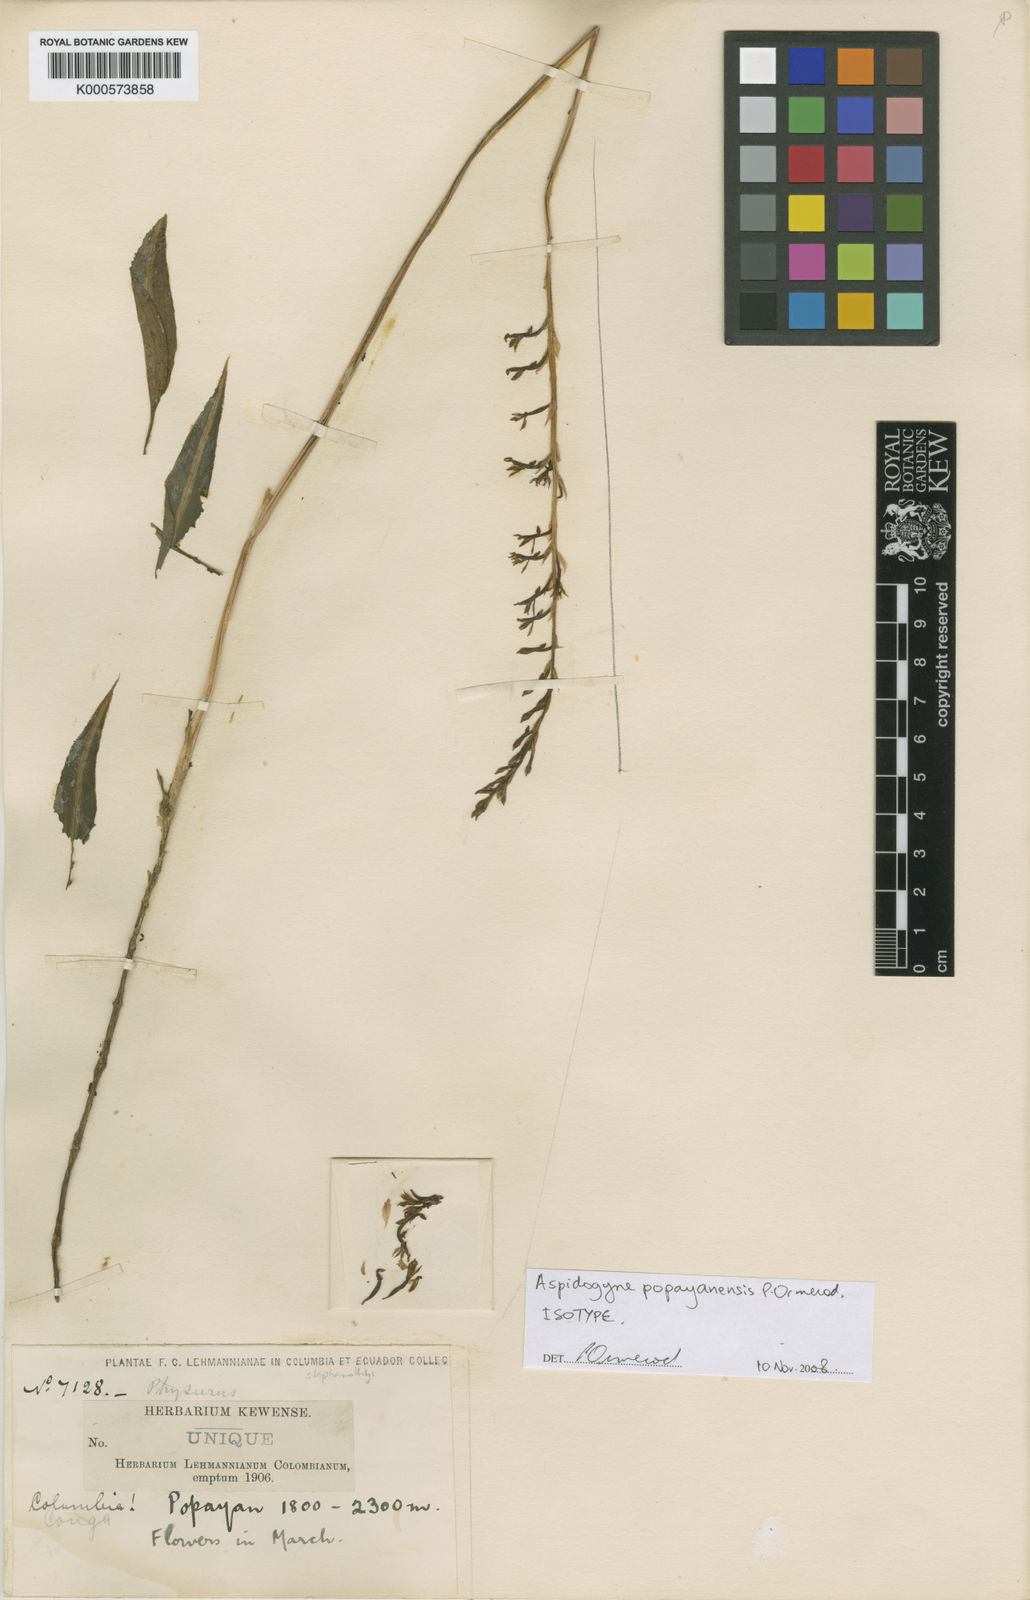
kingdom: Plantae
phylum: Tracheophyta
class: Liliopsida
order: Asparagales
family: Orchidaceae
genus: Aspidogyne
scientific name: Aspidogyne popayanensis
